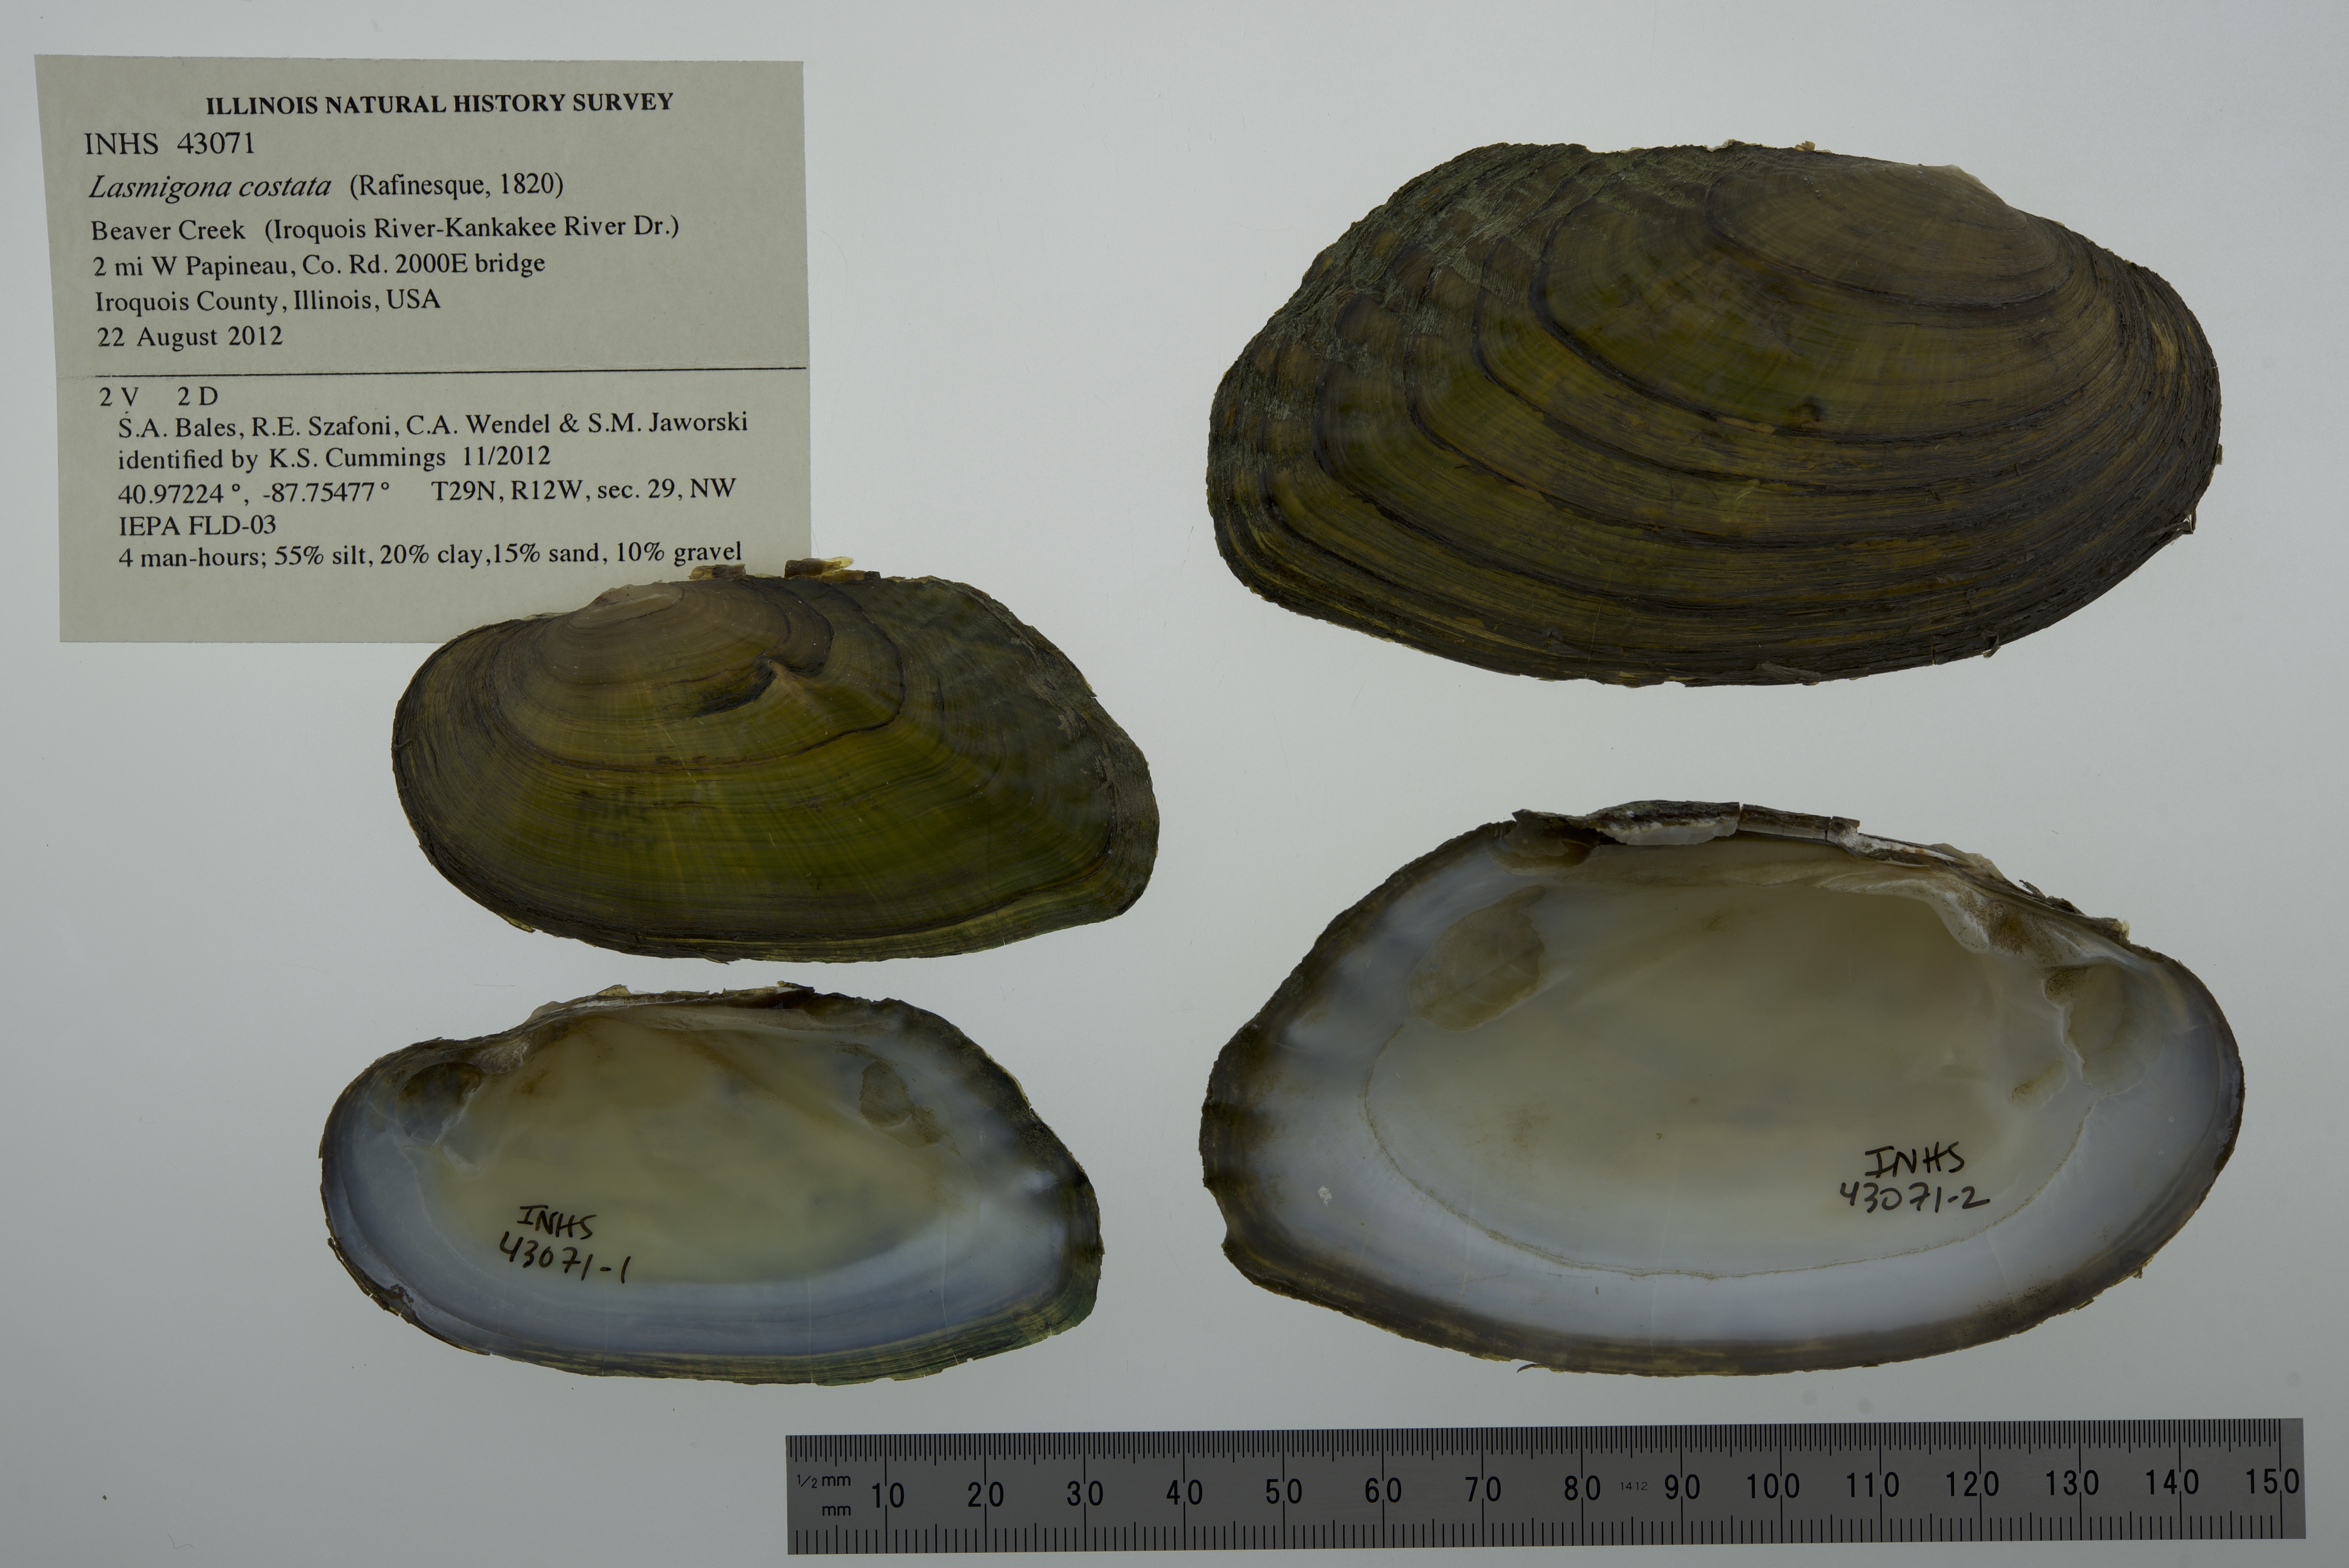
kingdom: Animalia
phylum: Mollusca
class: Bivalvia
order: Unionida
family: Unionidae
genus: Lasmigona
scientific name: Lasmigona costata
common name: Flutedshell
